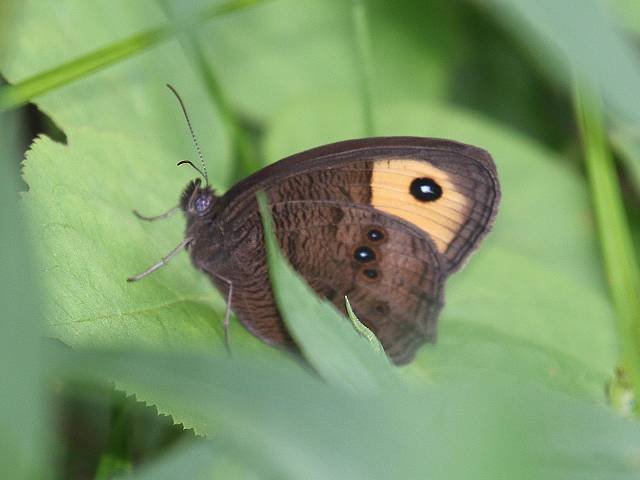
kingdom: Animalia
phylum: Arthropoda
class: Insecta
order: Lepidoptera
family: Nymphalidae
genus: Cercyonis
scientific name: Cercyonis pegala
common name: Common Wood-Nymph
